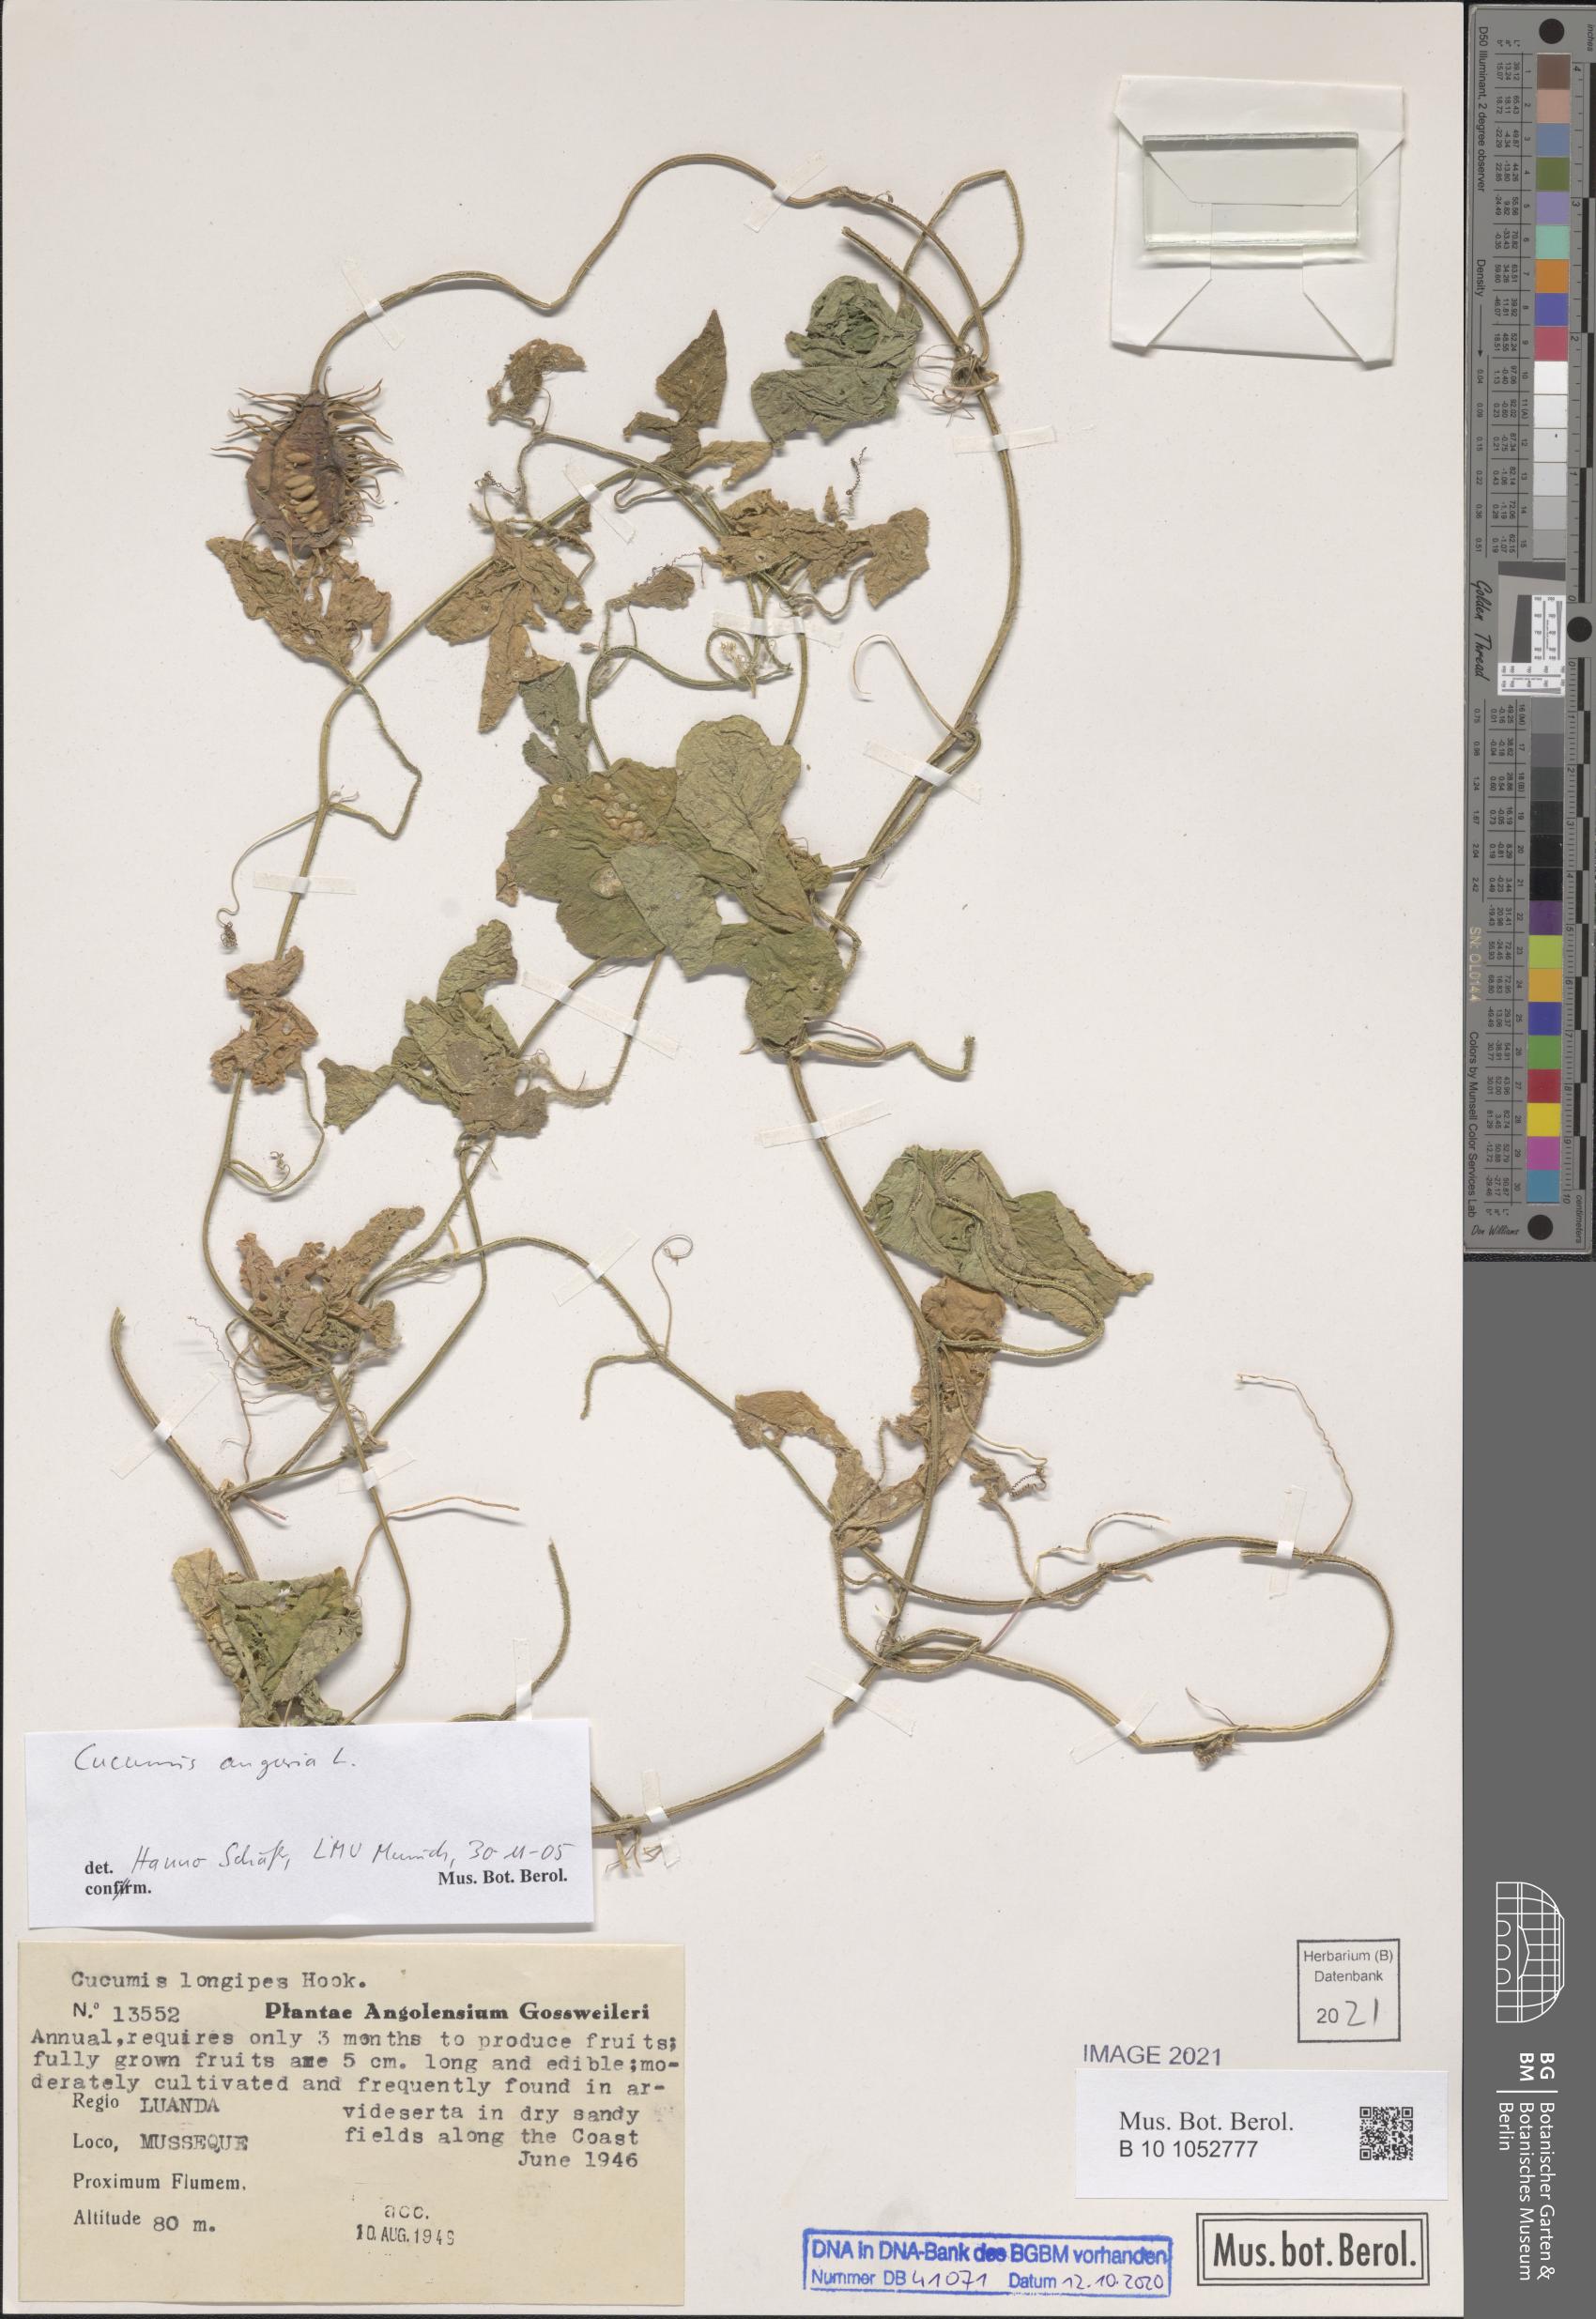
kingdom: Plantae
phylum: Tracheophyta
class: Magnoliopsida
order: Cucurbitales
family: Cucurbitaceae
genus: Cucumis
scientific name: Cucumis anguria
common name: West indian gherkin
